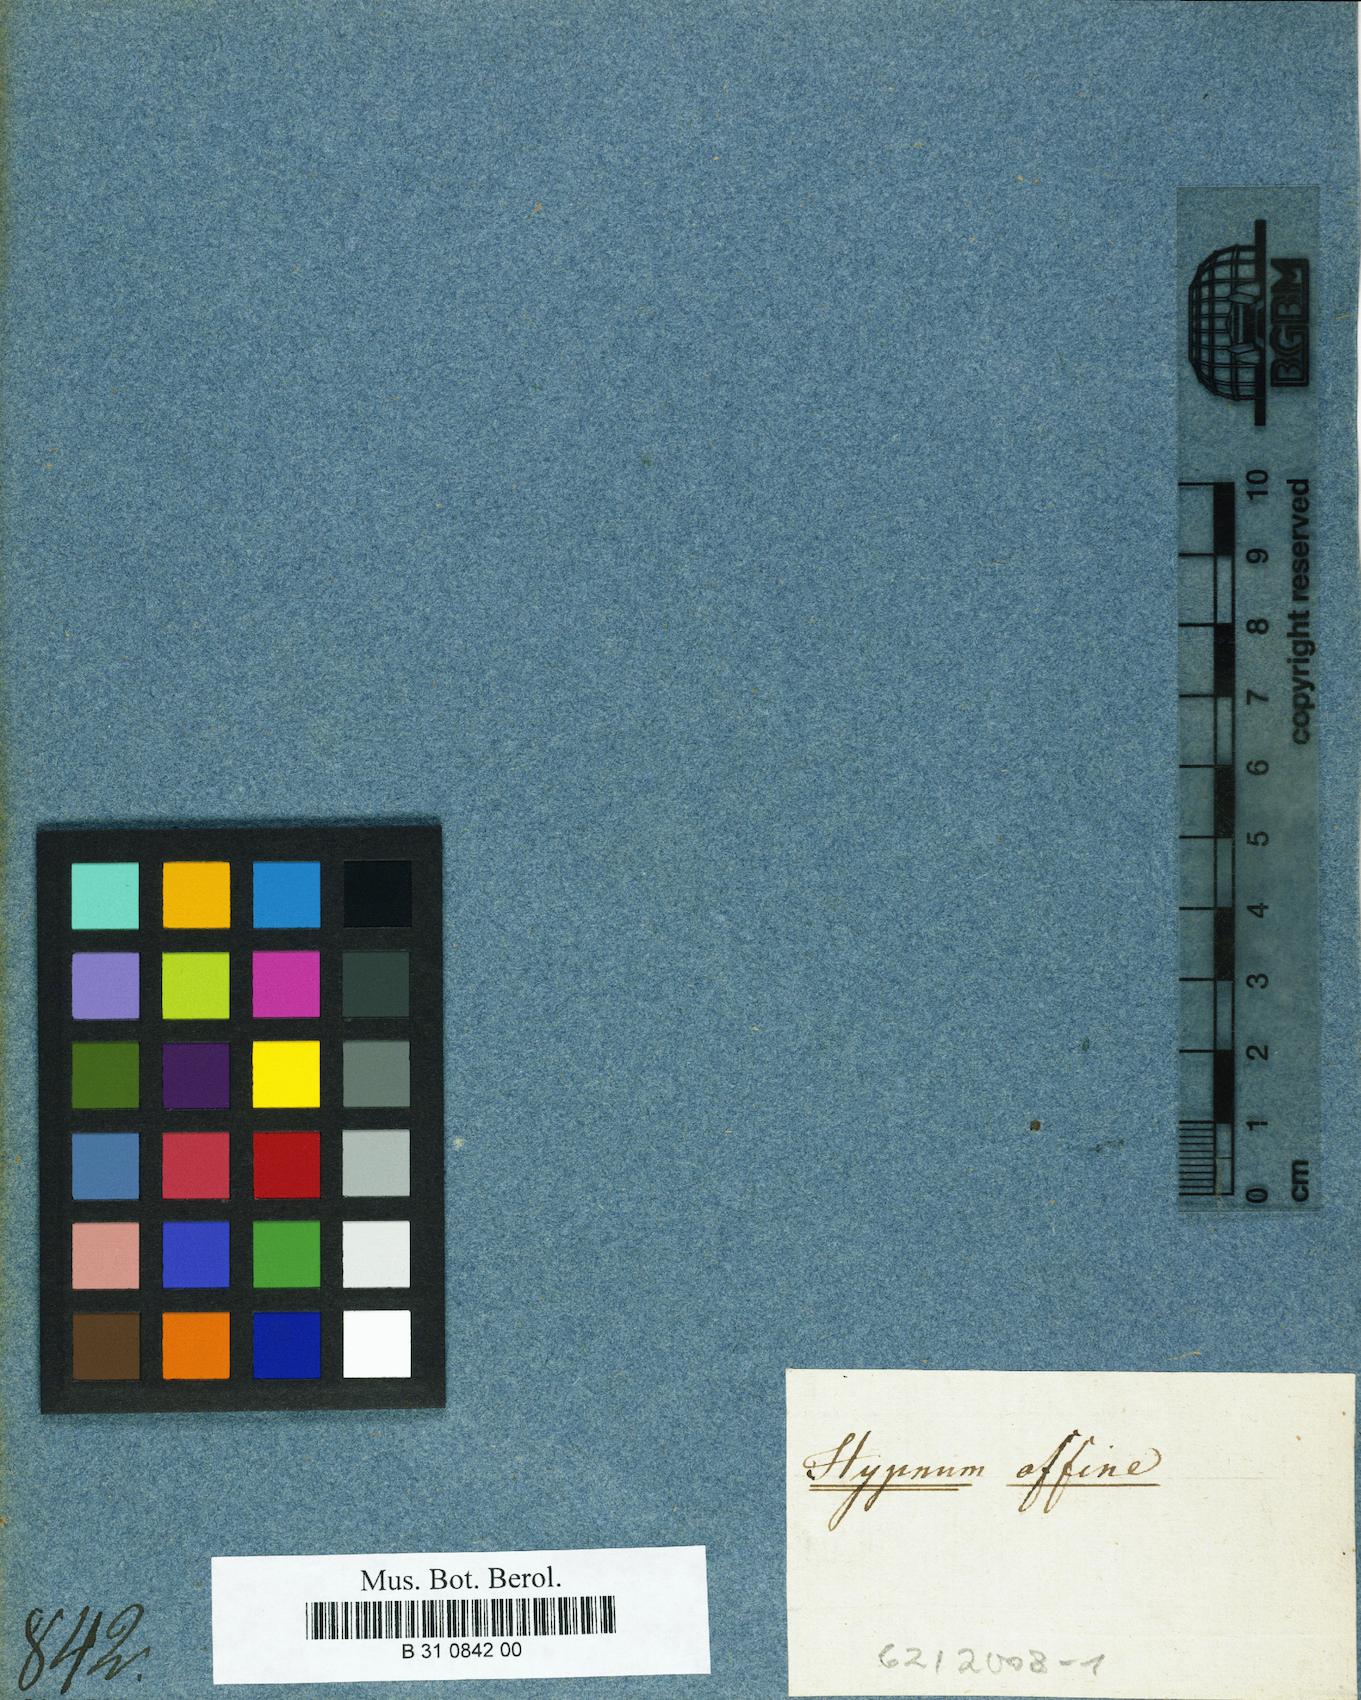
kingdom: Plantae
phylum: Bryophyta
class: Bryopsida
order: Hypnales
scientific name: Hypnales
